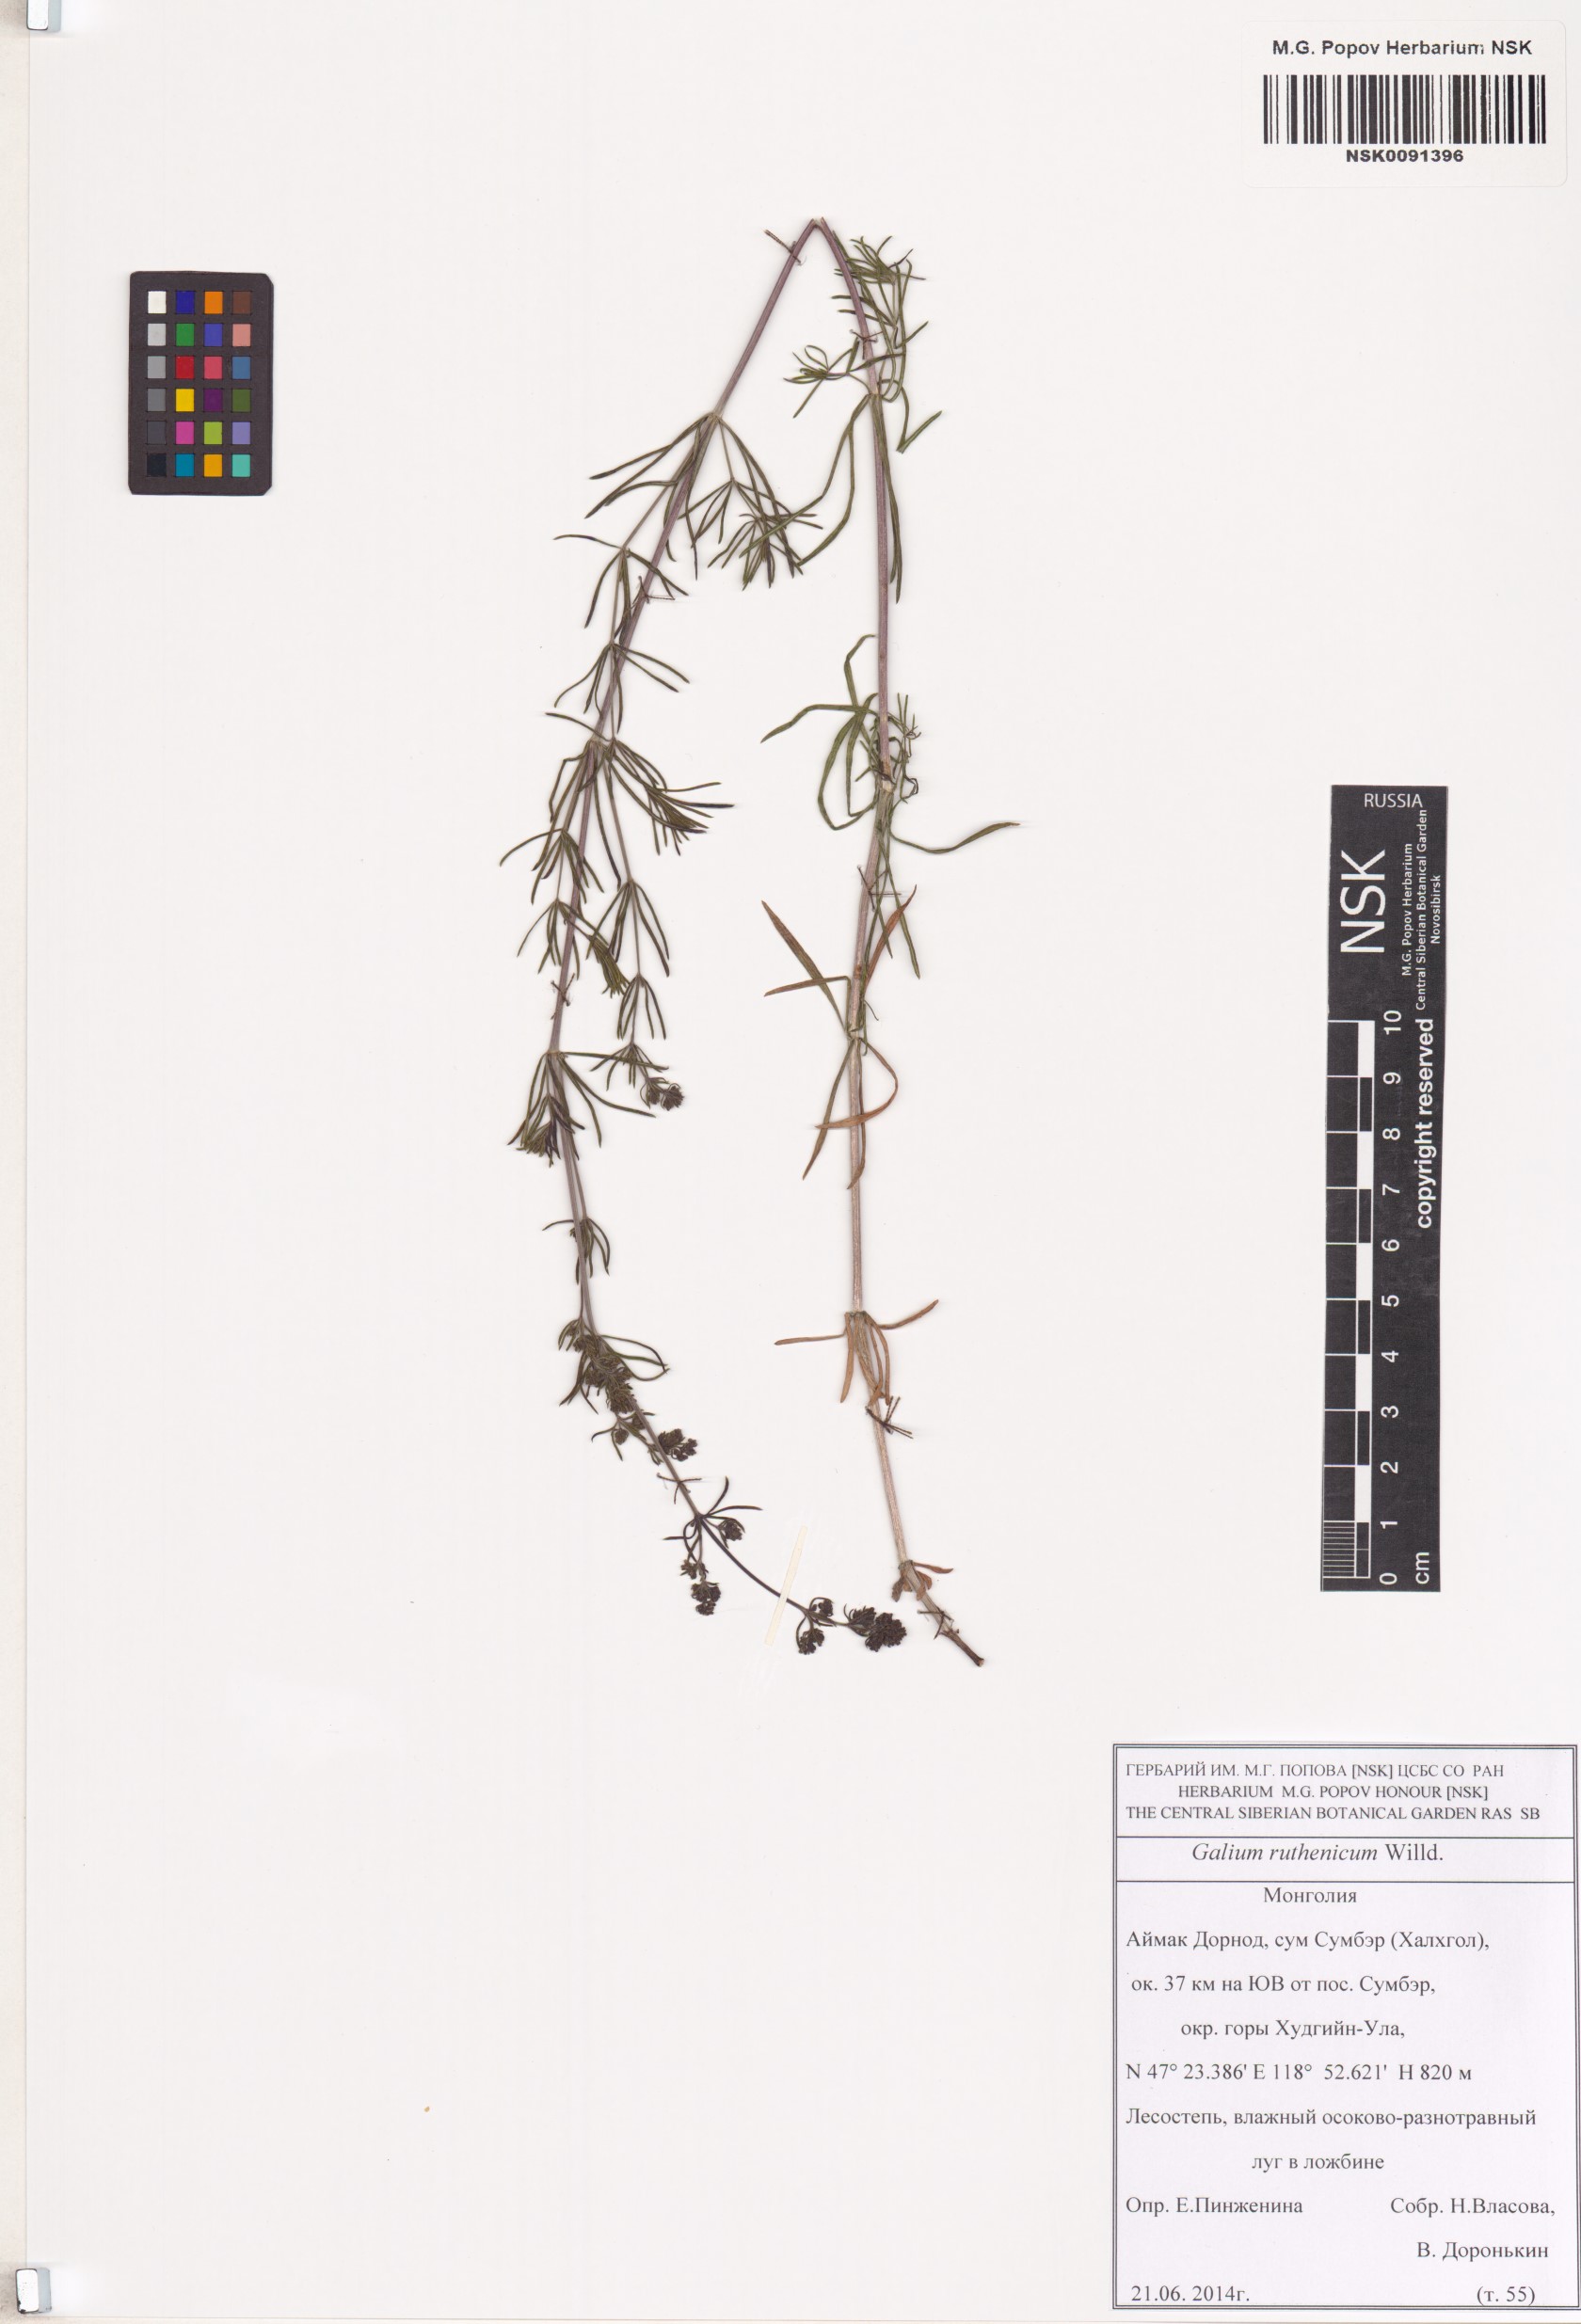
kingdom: Plantae
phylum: Tracheophyta
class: Magnoliopsida
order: Gentianales
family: Rubiaceae
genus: Galium
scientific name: Galium verum
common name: Lady's bedstraw
